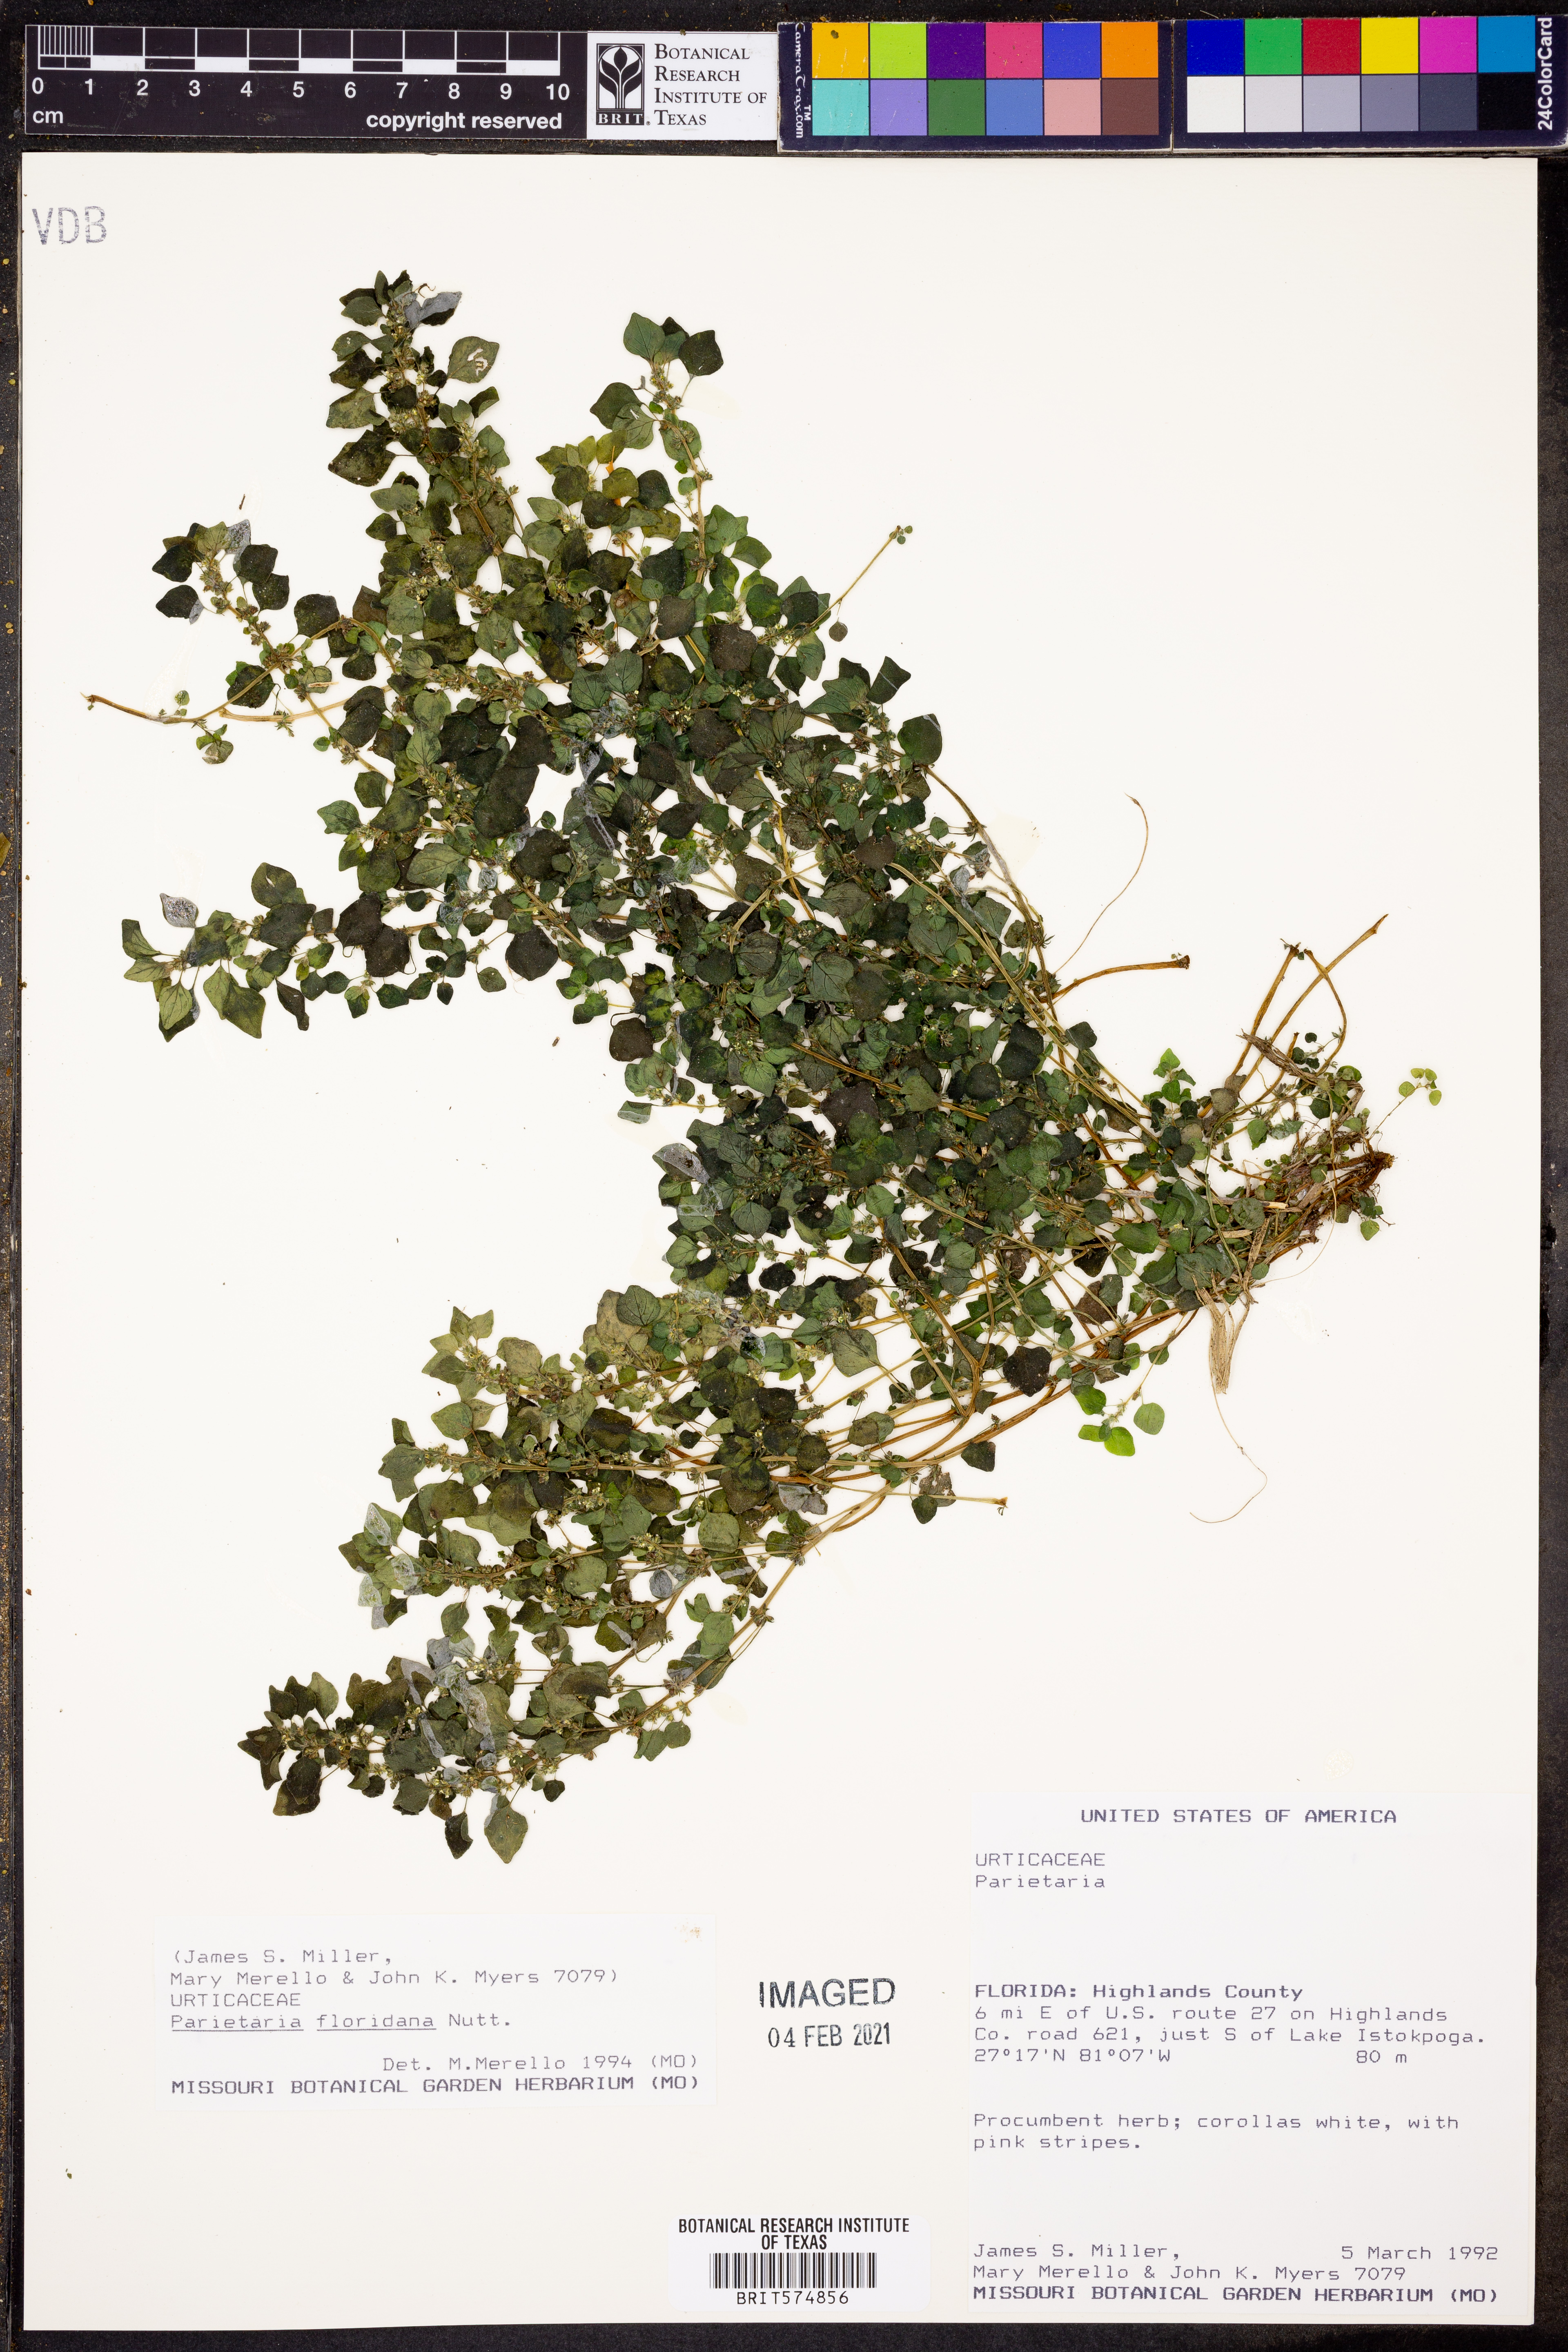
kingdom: Plantae
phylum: Tracheophyta
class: Magnoliopsida
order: Rosales
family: Urticaceae
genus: Parietaria
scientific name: Parietaria floridana
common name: Florida pellitory
